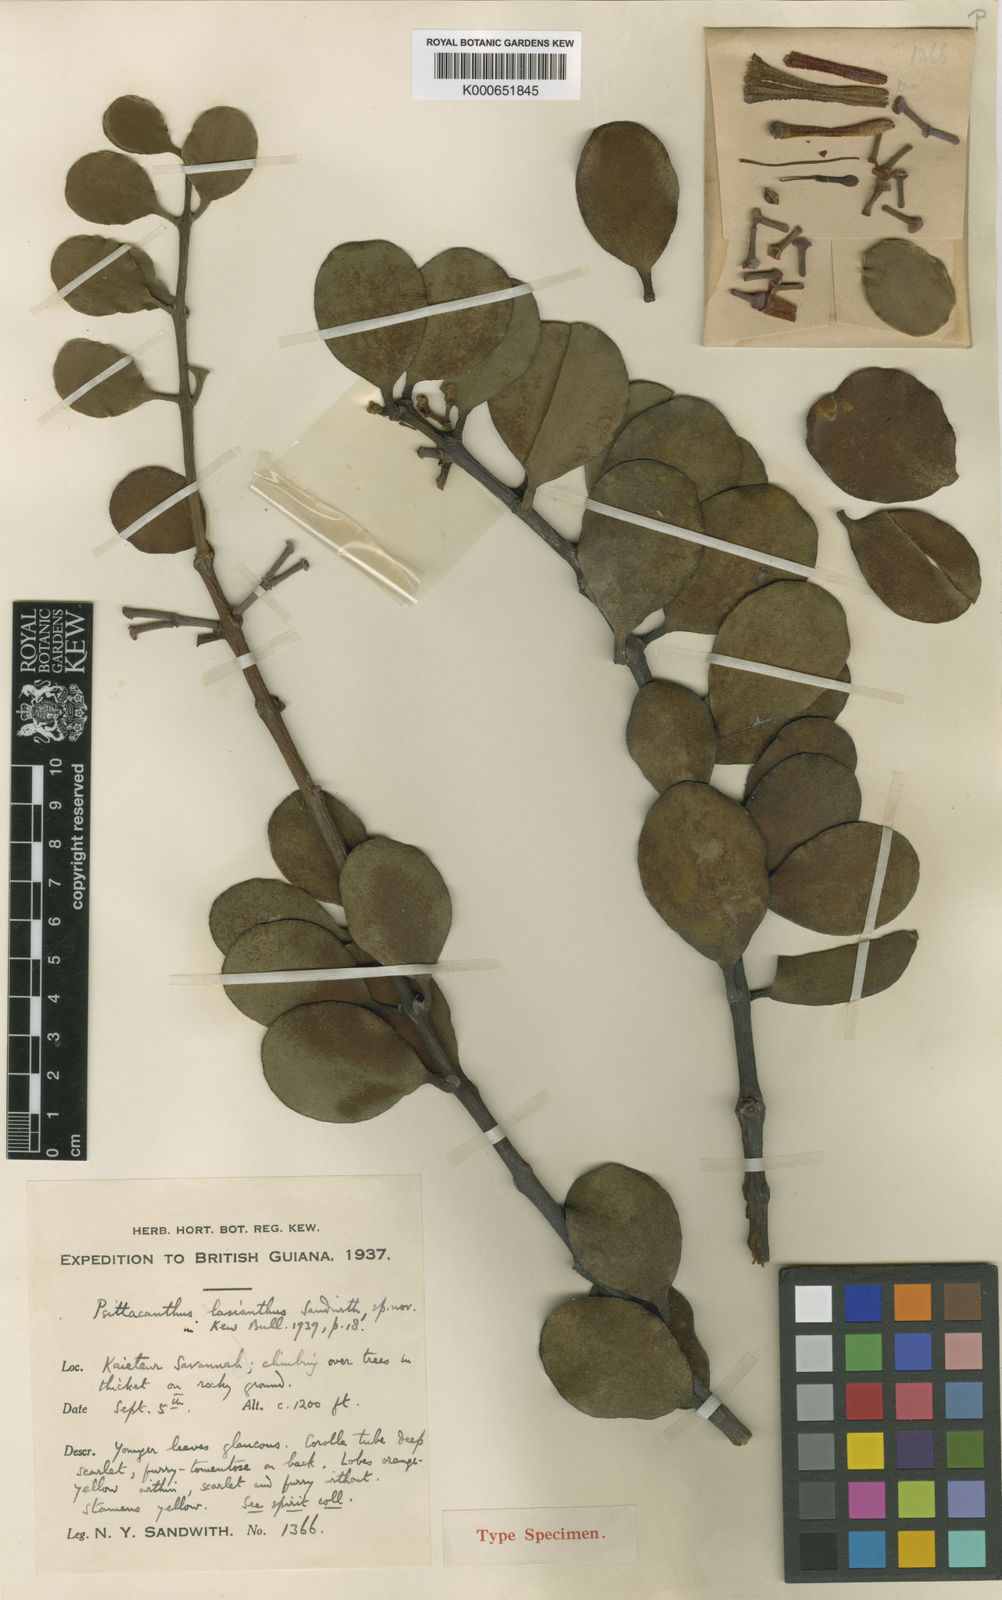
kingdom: Plantae
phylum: Tracheophyta
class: Magnoliopsida
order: Santalales
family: Loranthaceae
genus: Psittacanthus
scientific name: Psittacanthus lasianthus
